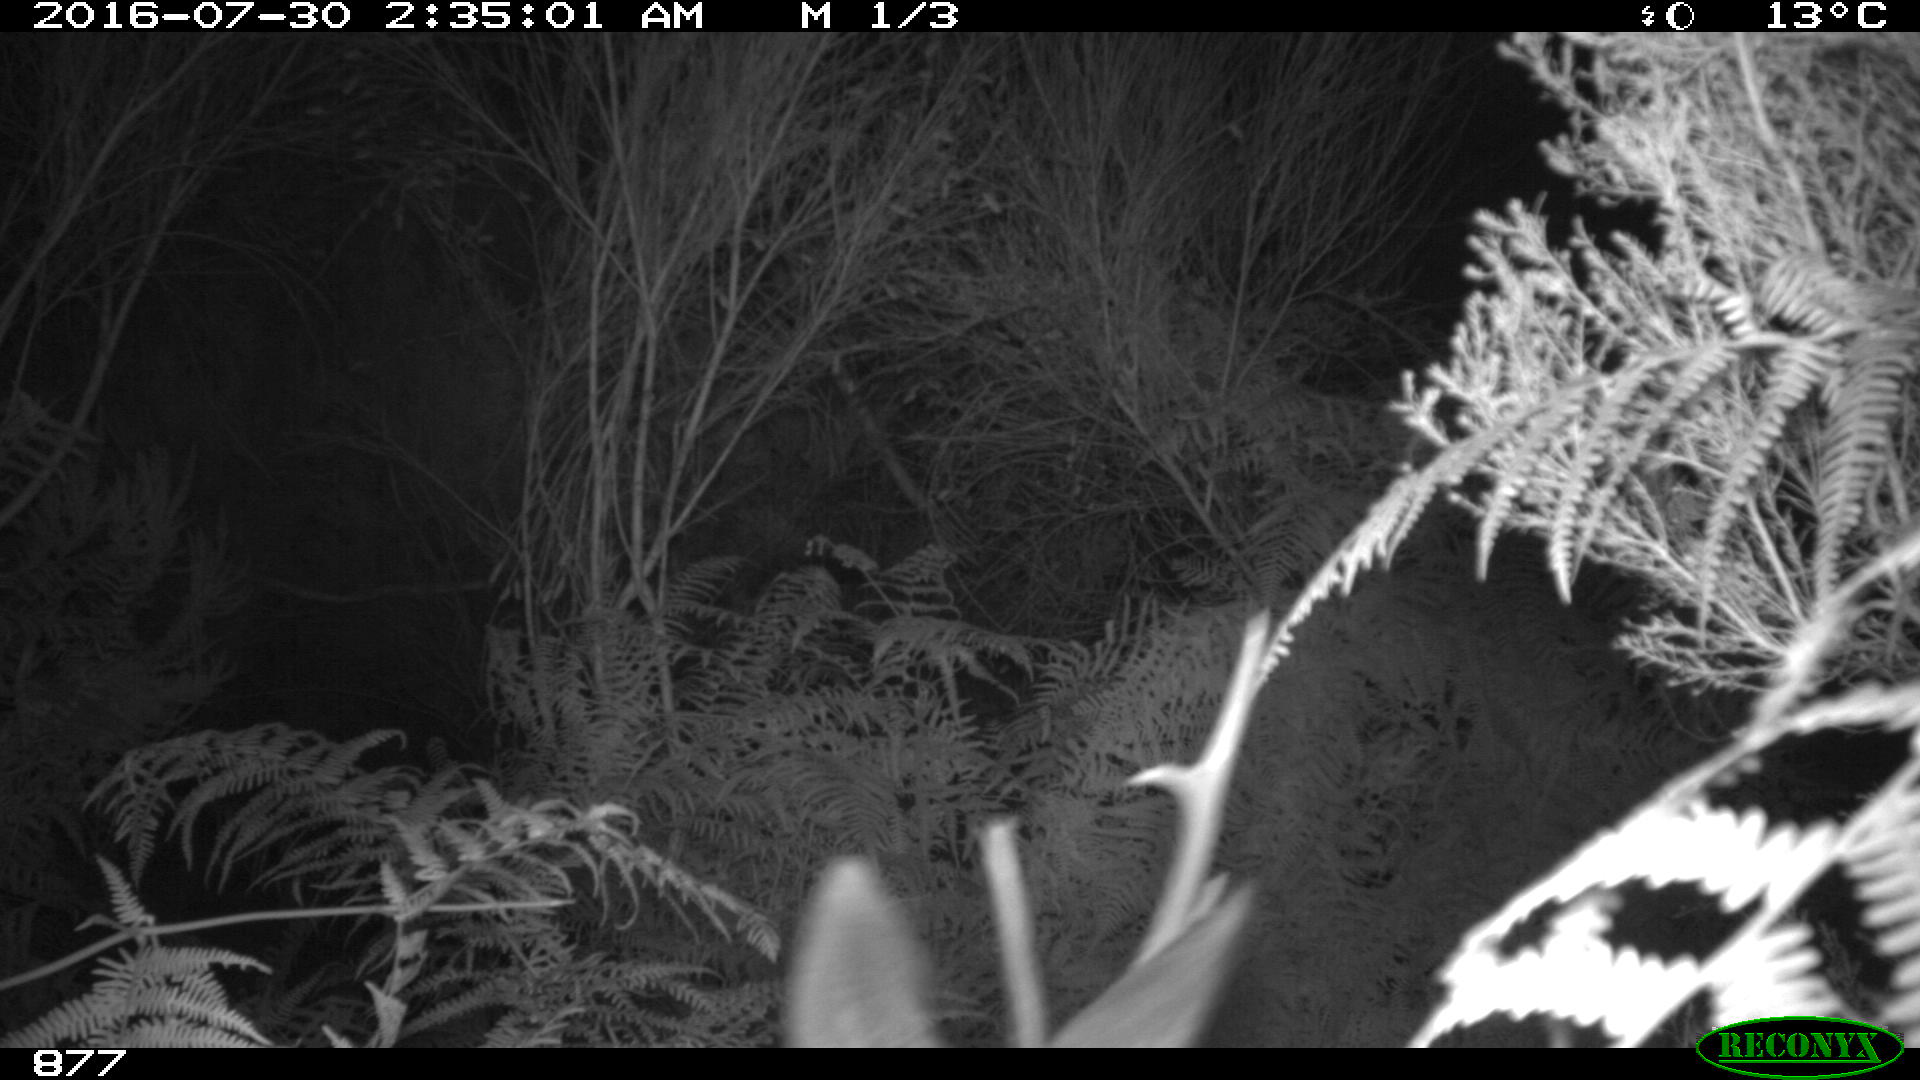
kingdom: Animalia
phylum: Chordata
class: Mammalia
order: Artiodactyla
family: Cervidae
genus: Capreolus
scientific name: Capreolus capreolus
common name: Western roe deer
